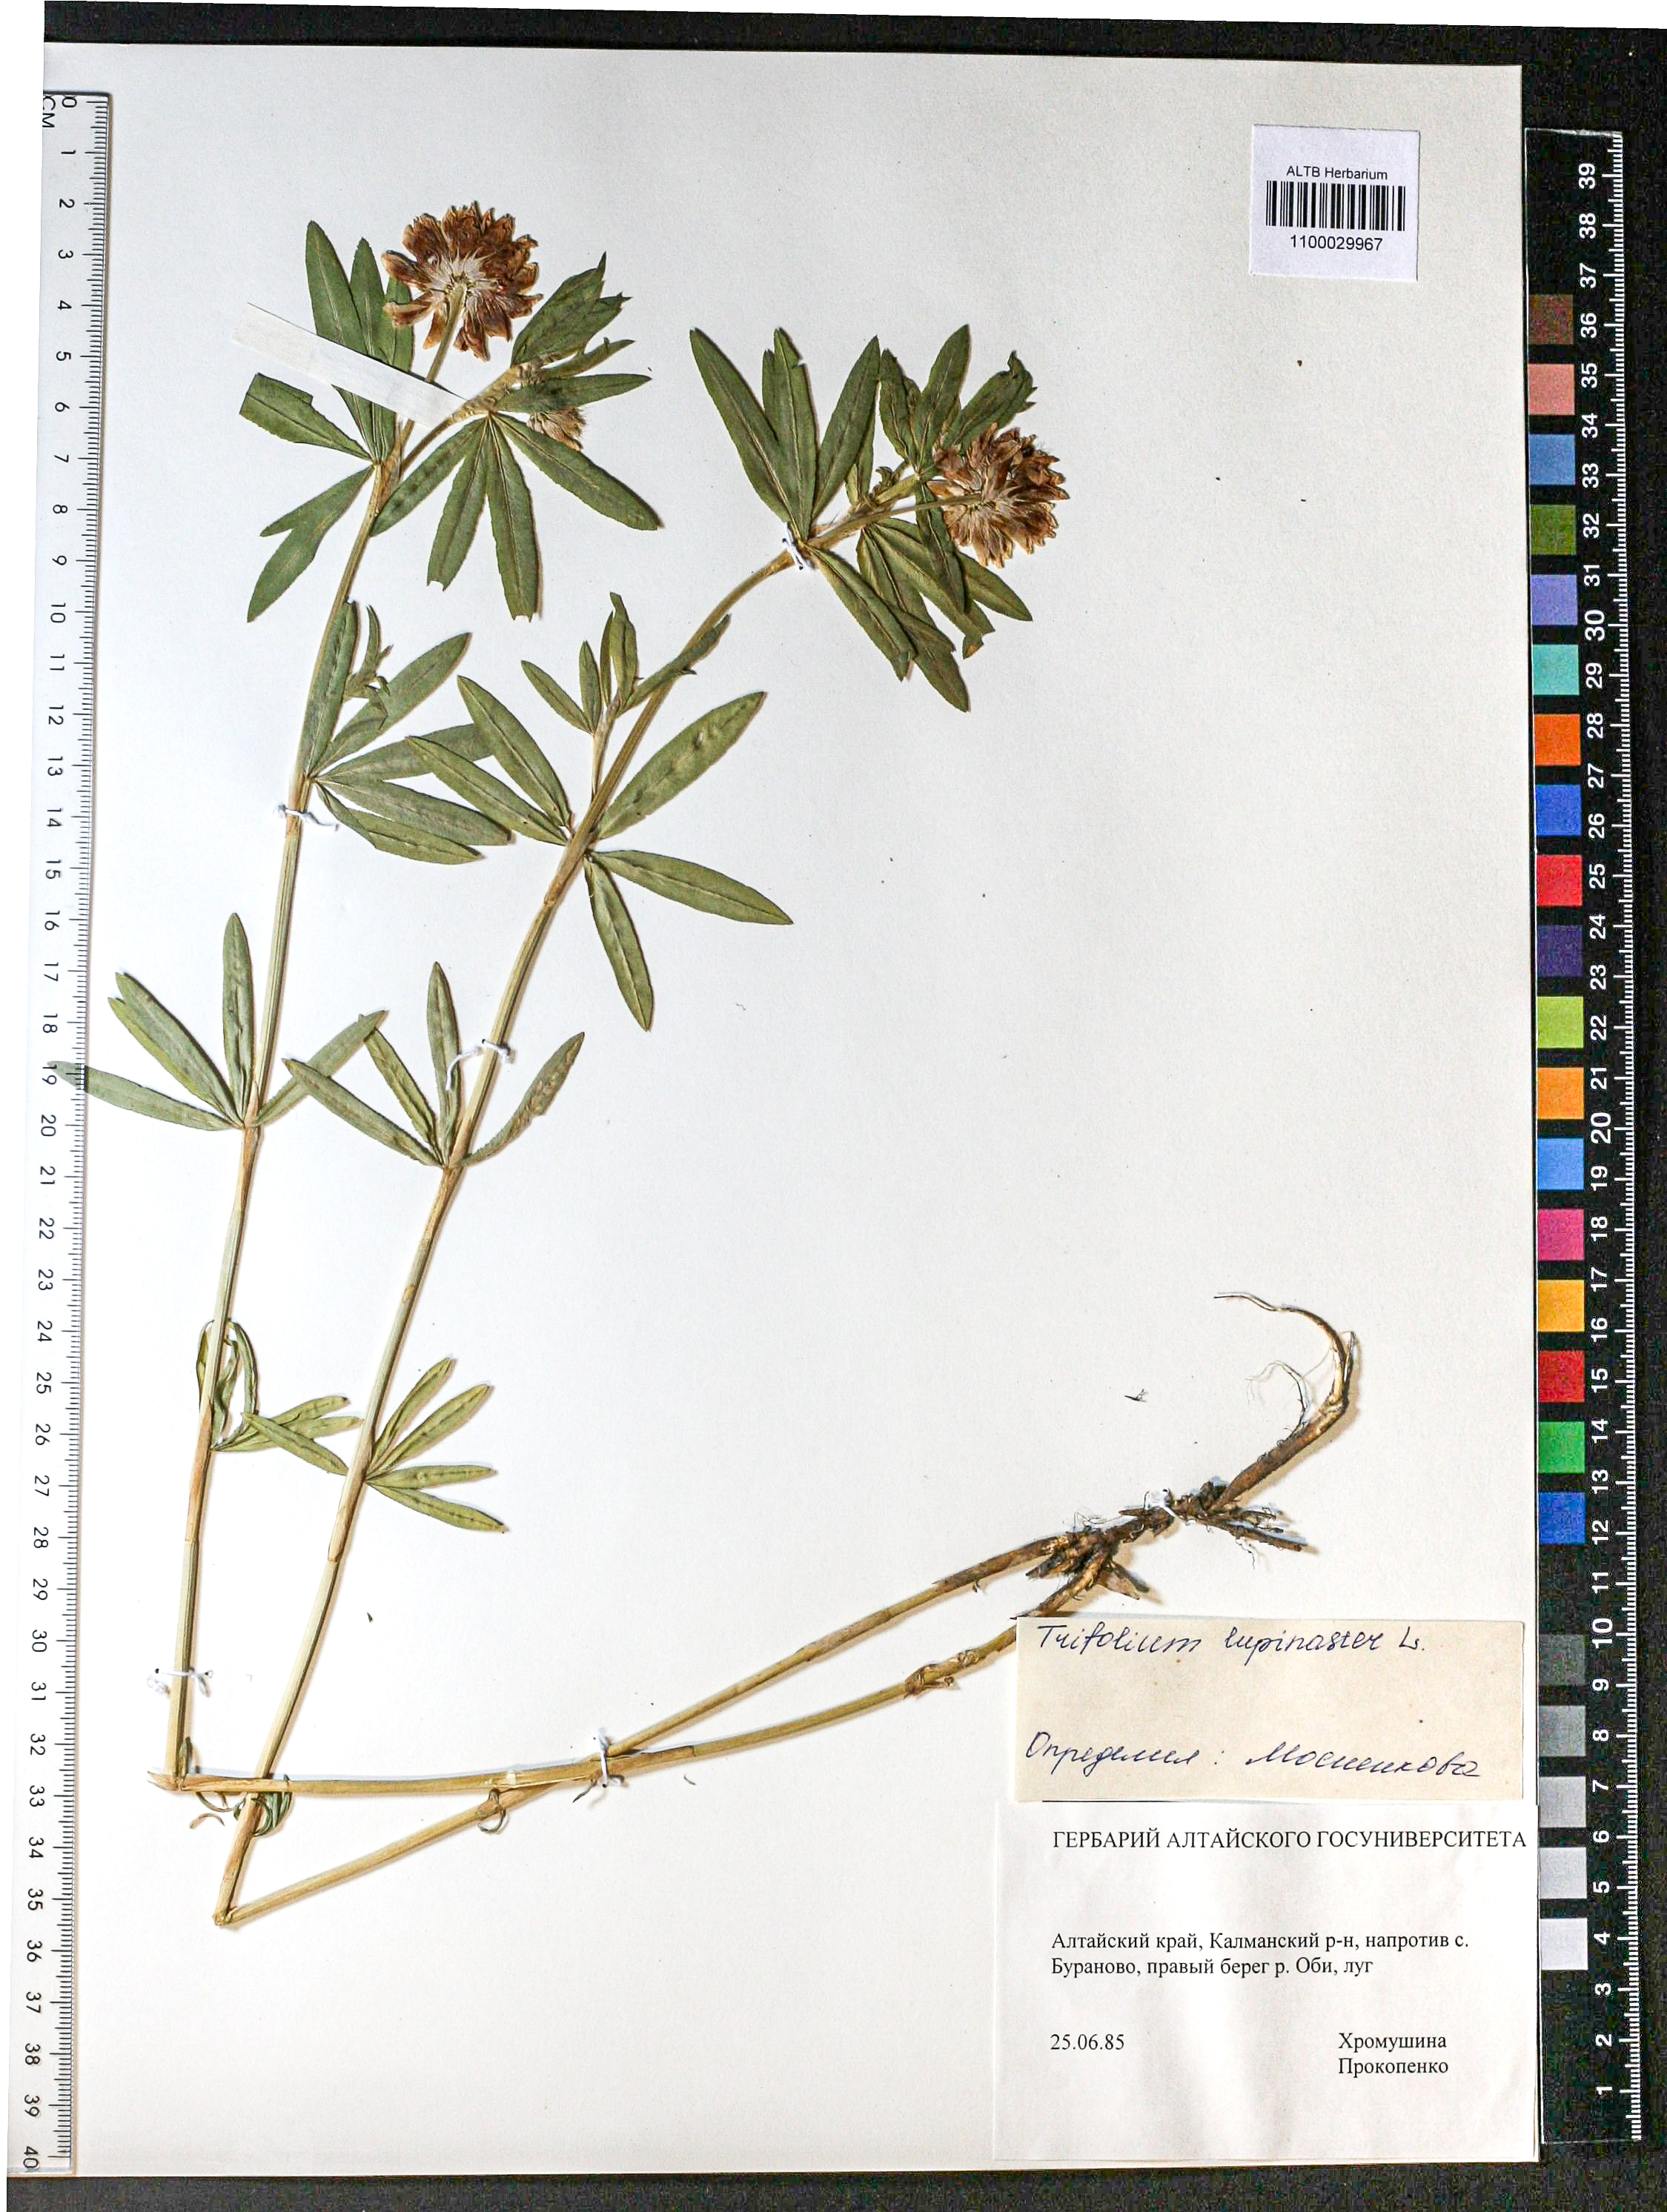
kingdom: Plantae
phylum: Tracheophyta
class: Magnoliopsida
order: Fabales
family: Fabaceae
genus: Lathyrus
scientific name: Lathyrus tuberosus
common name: Tuberous pea
